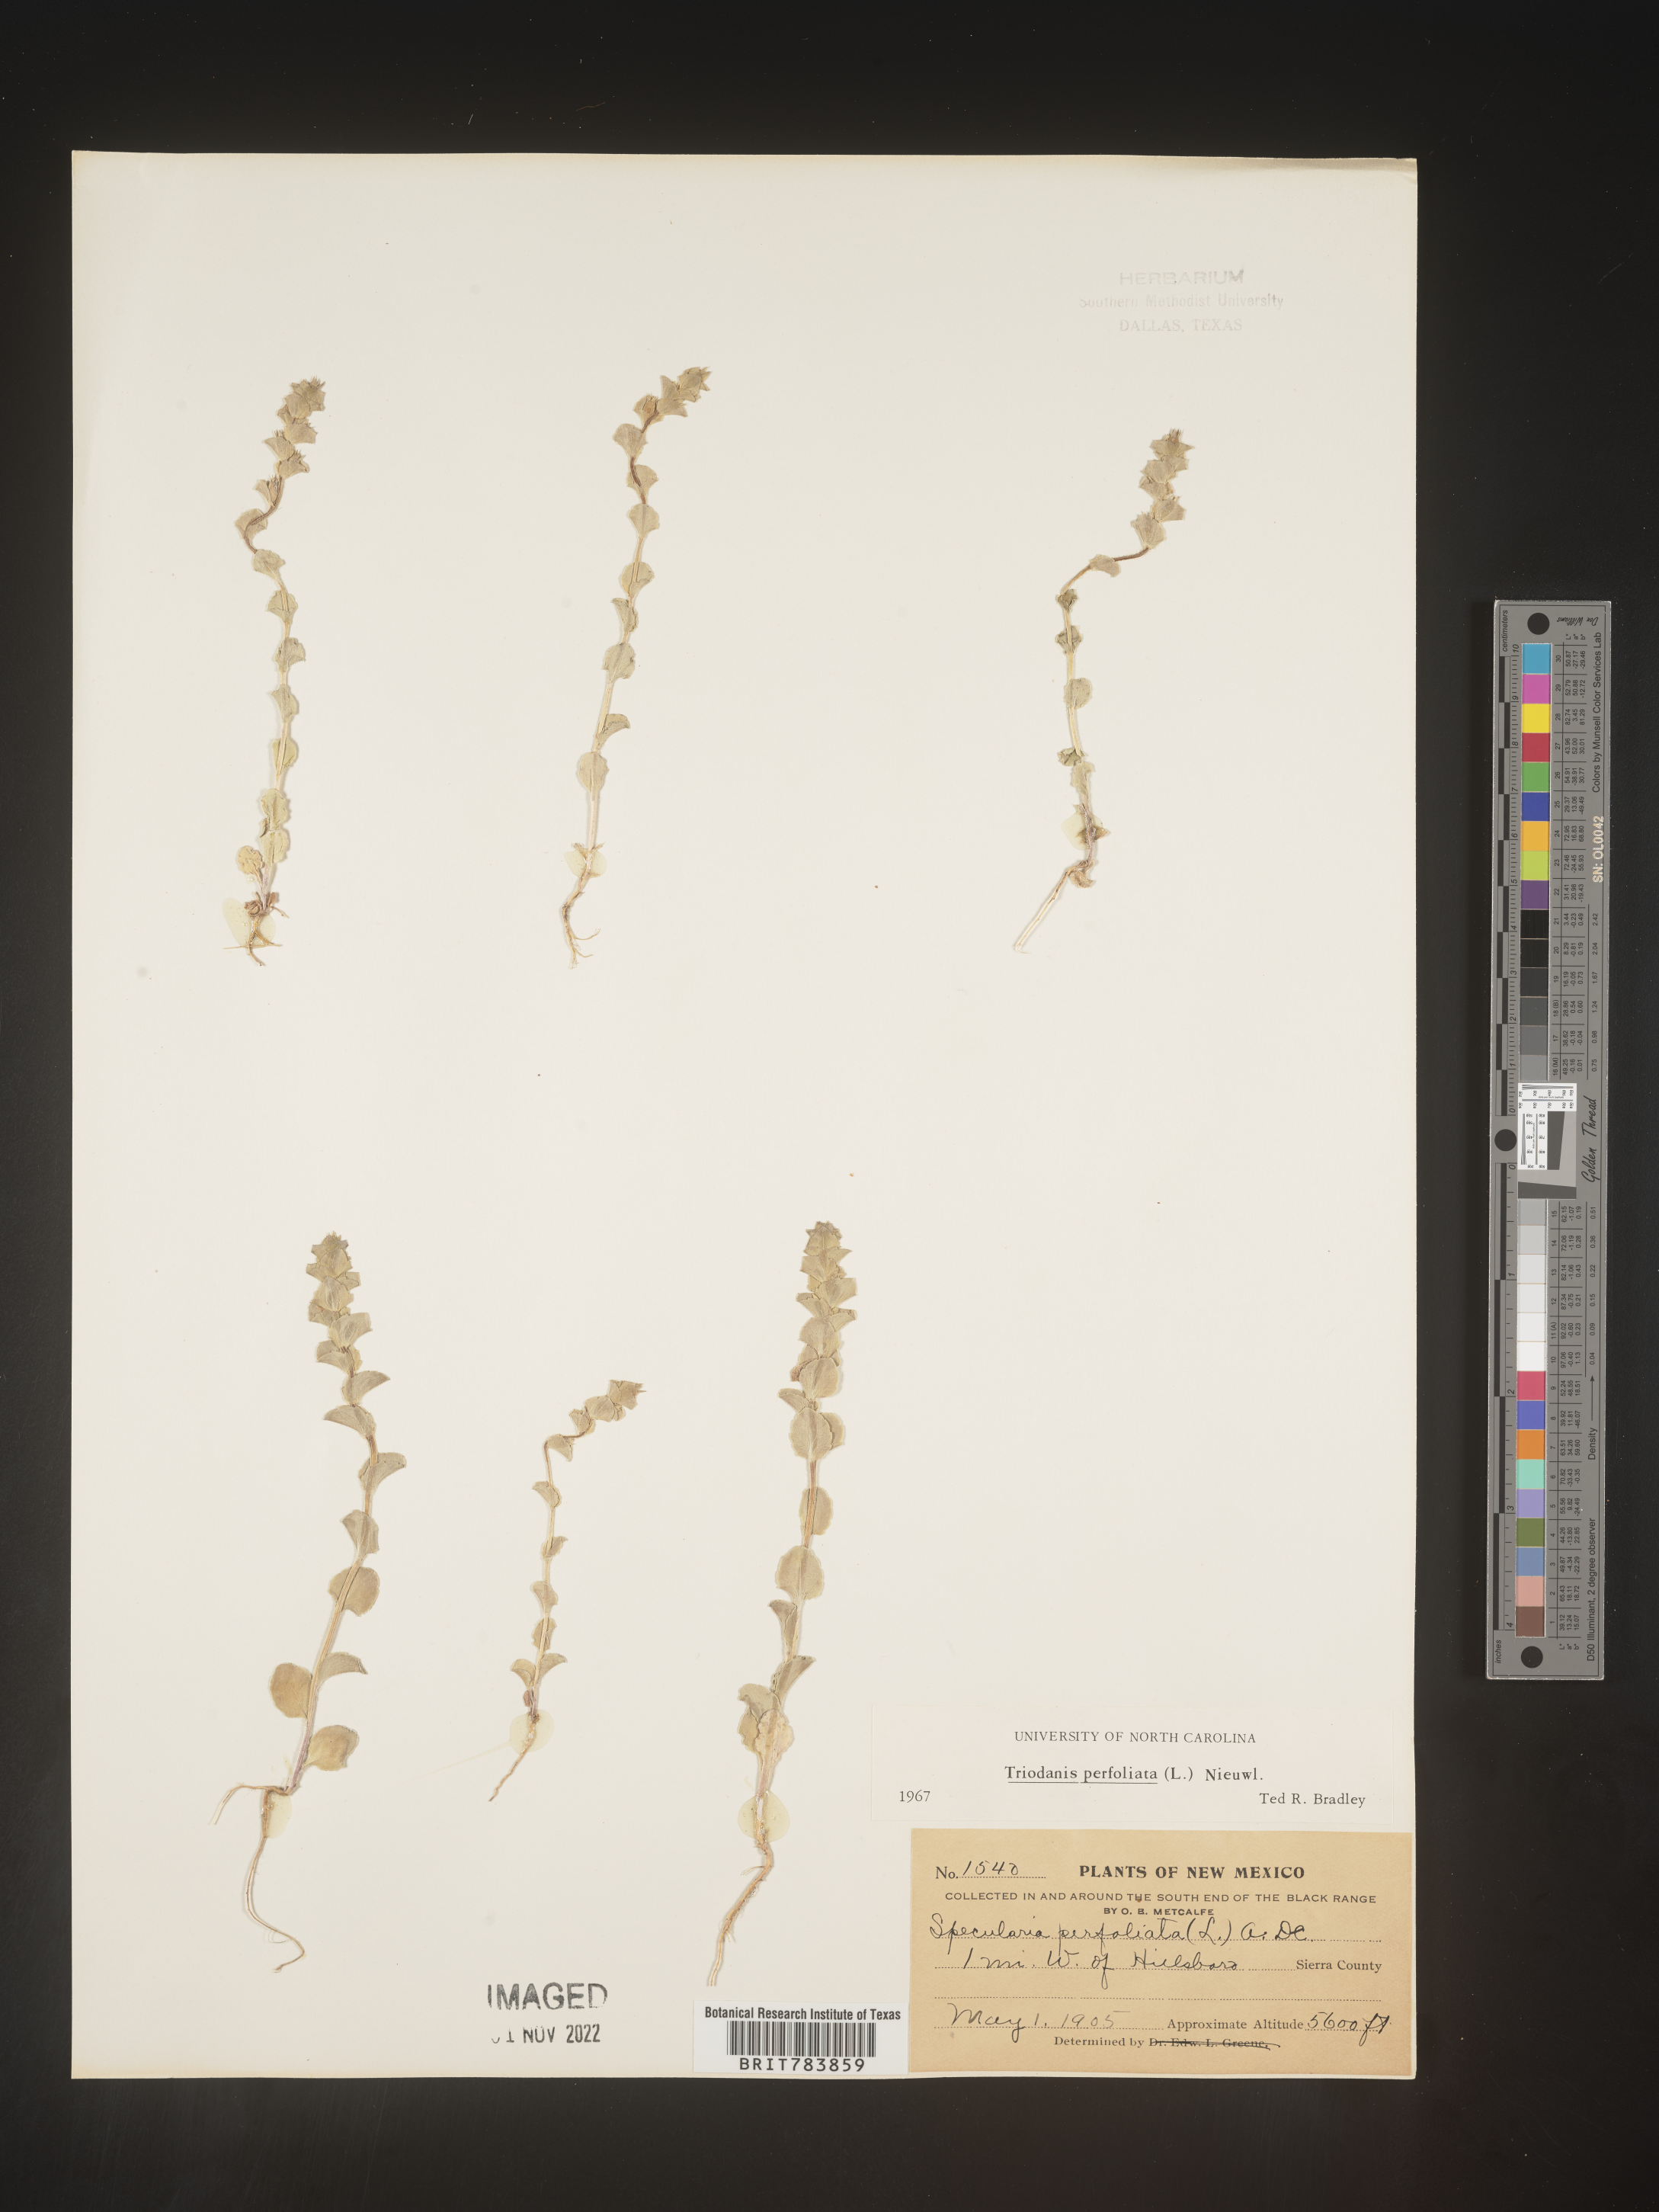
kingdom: Plantae
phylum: Tracheophyta
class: Magnoliopsida
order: Asterales
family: Campanulaceae
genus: Triodanis
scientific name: Triodanis perfoliata
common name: Clasping venus' looking-glass
